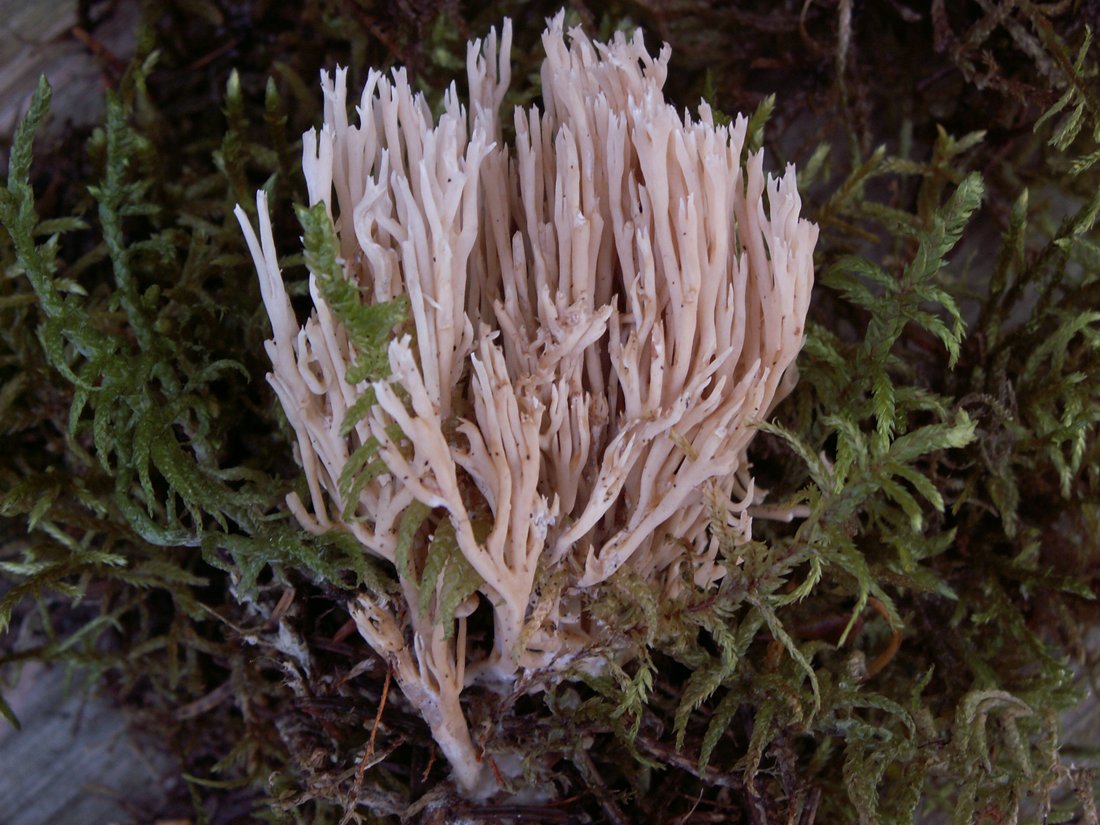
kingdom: Fungi
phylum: Basidiomycota
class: Agaricomycetes
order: Gomphales
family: Gomphaceae
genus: Ramaria
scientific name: Ramaria gracilis
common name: anis-koralsvamp
